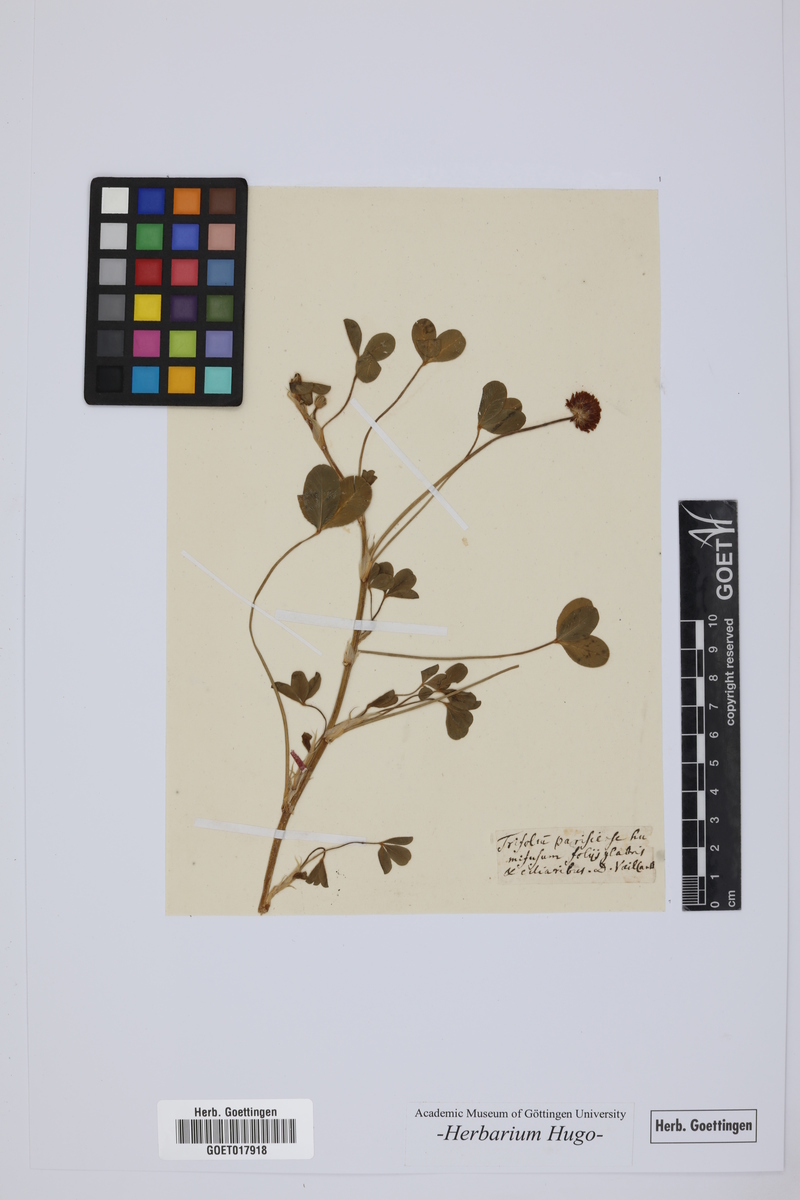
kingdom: Plantae
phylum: Tracheophyta
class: Magnoliopsida
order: Fabales
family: Fabaceae
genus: Trifolium
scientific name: Trifolium
